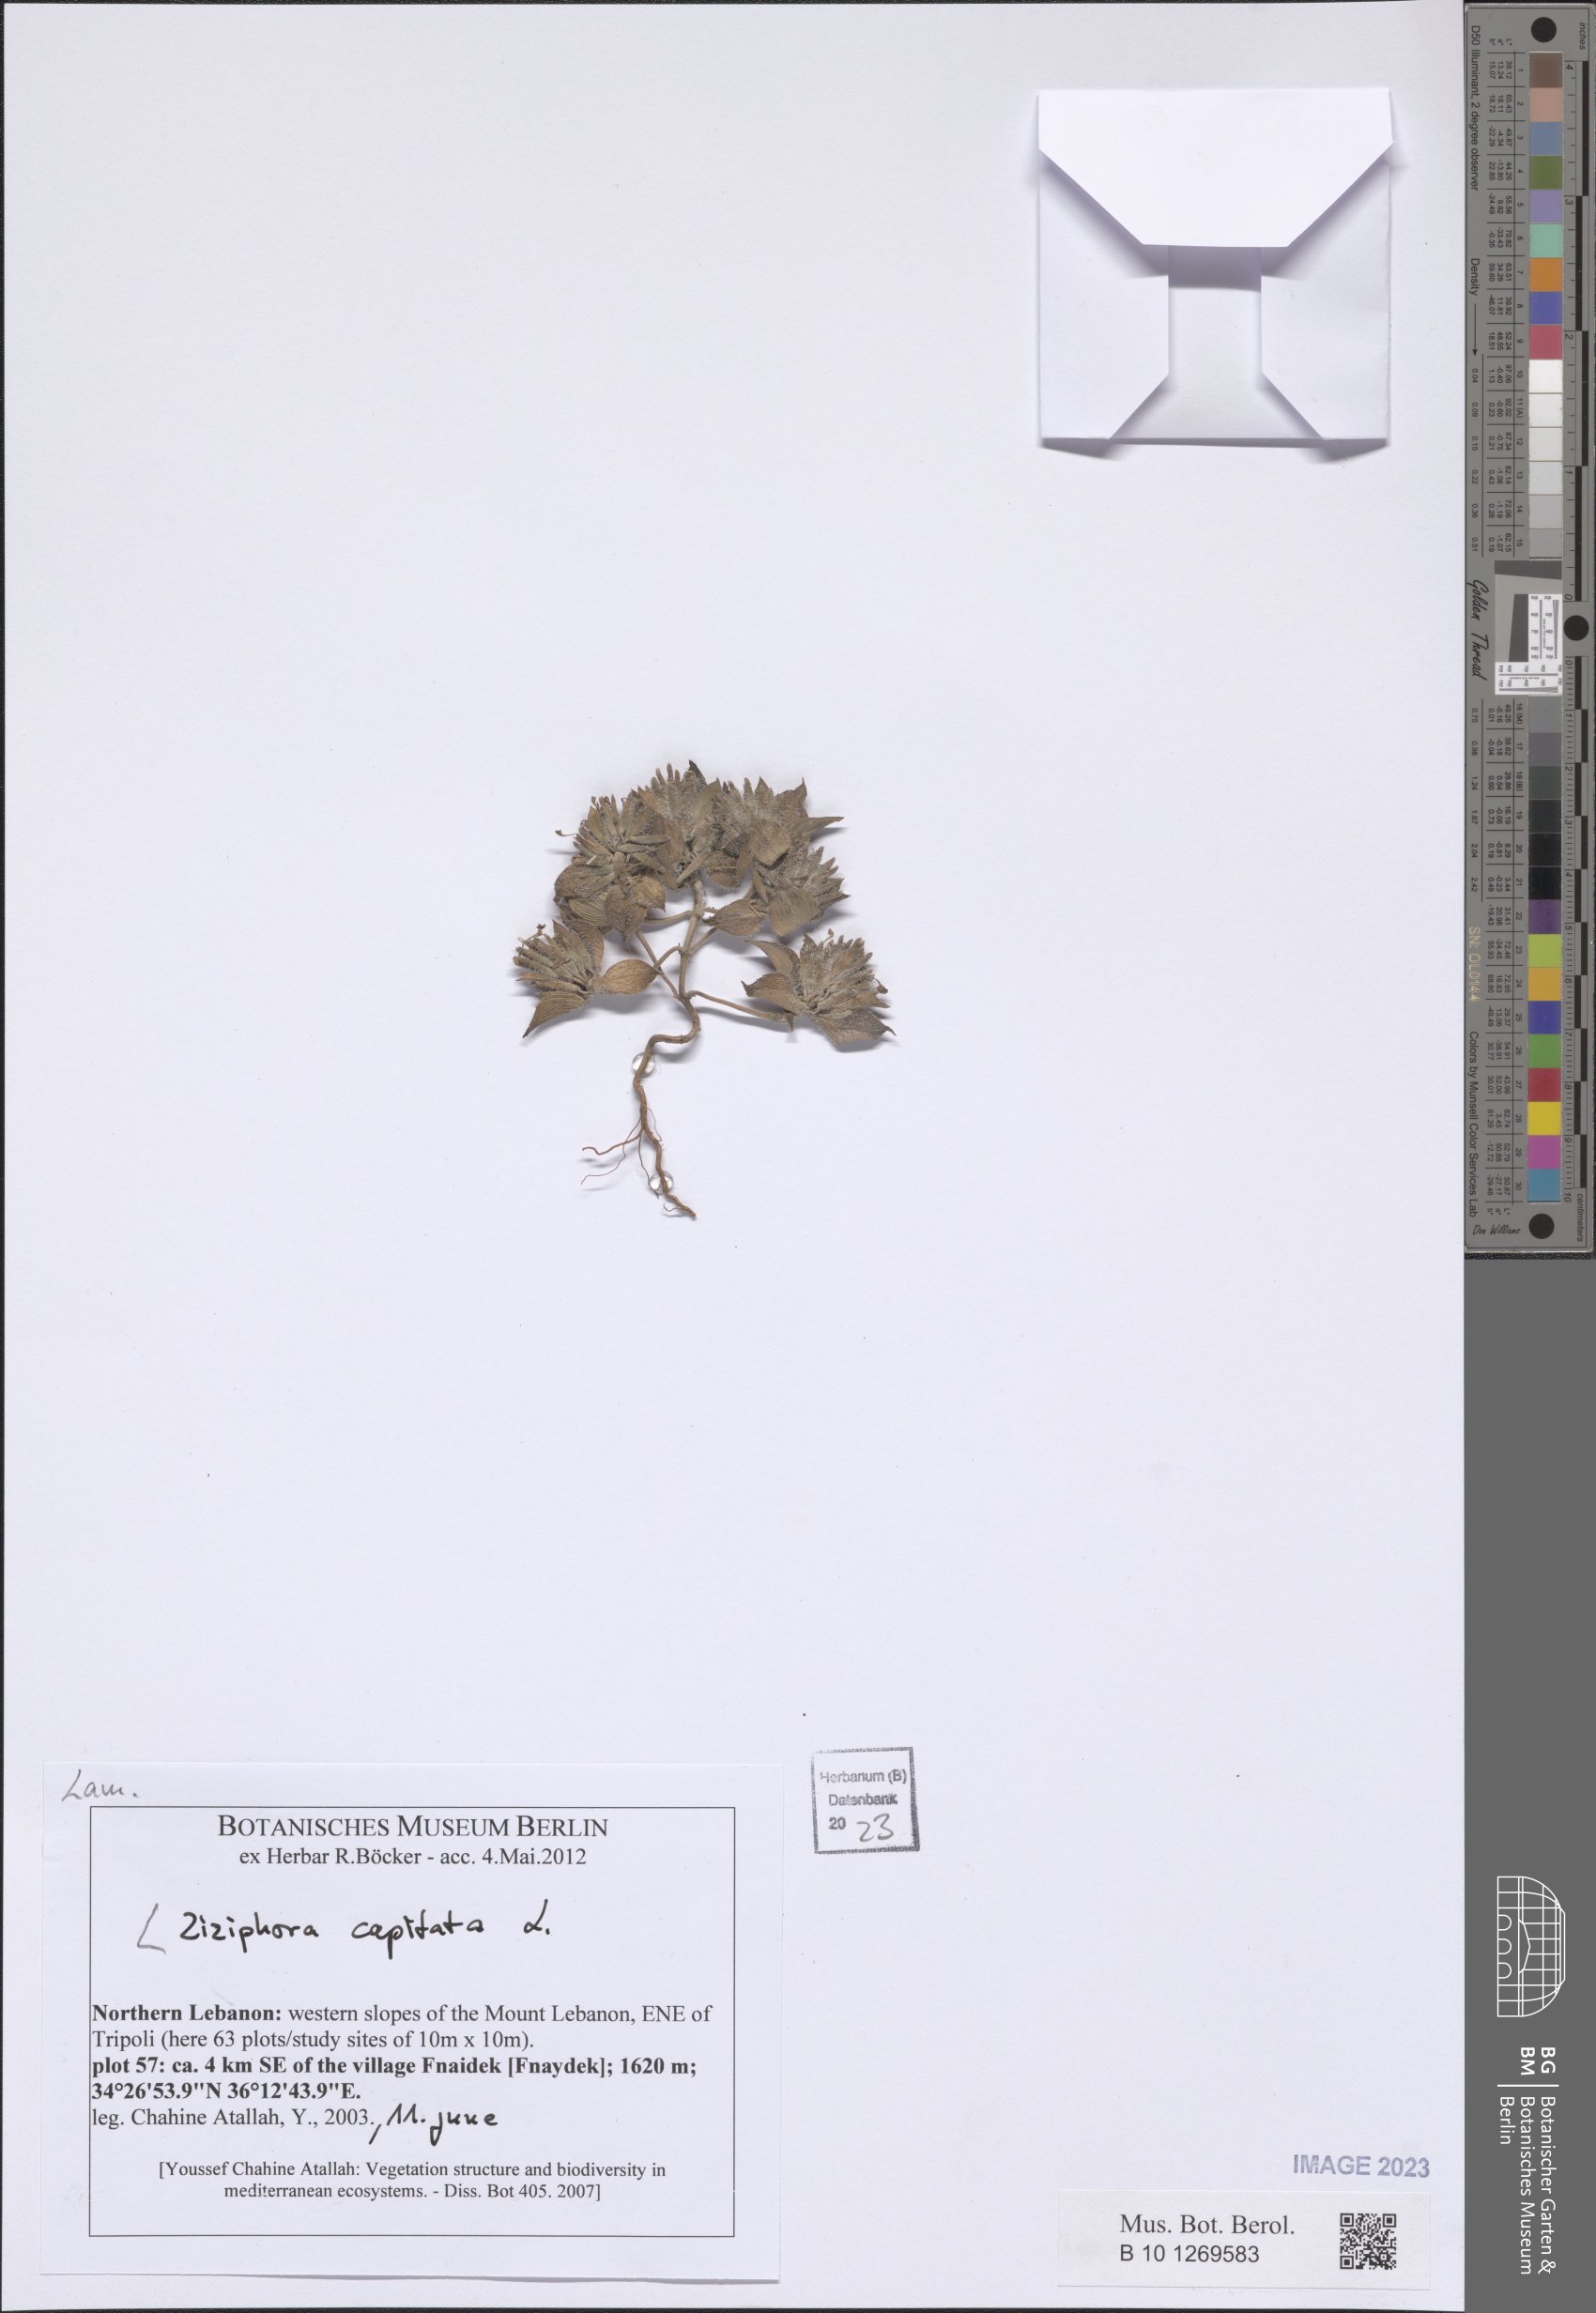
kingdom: Plantae
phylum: Tracheophyta
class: Magnoliopsida
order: Lamiales
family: Lamiaceae
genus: Ziziphora
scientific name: Ziziphora capitata
